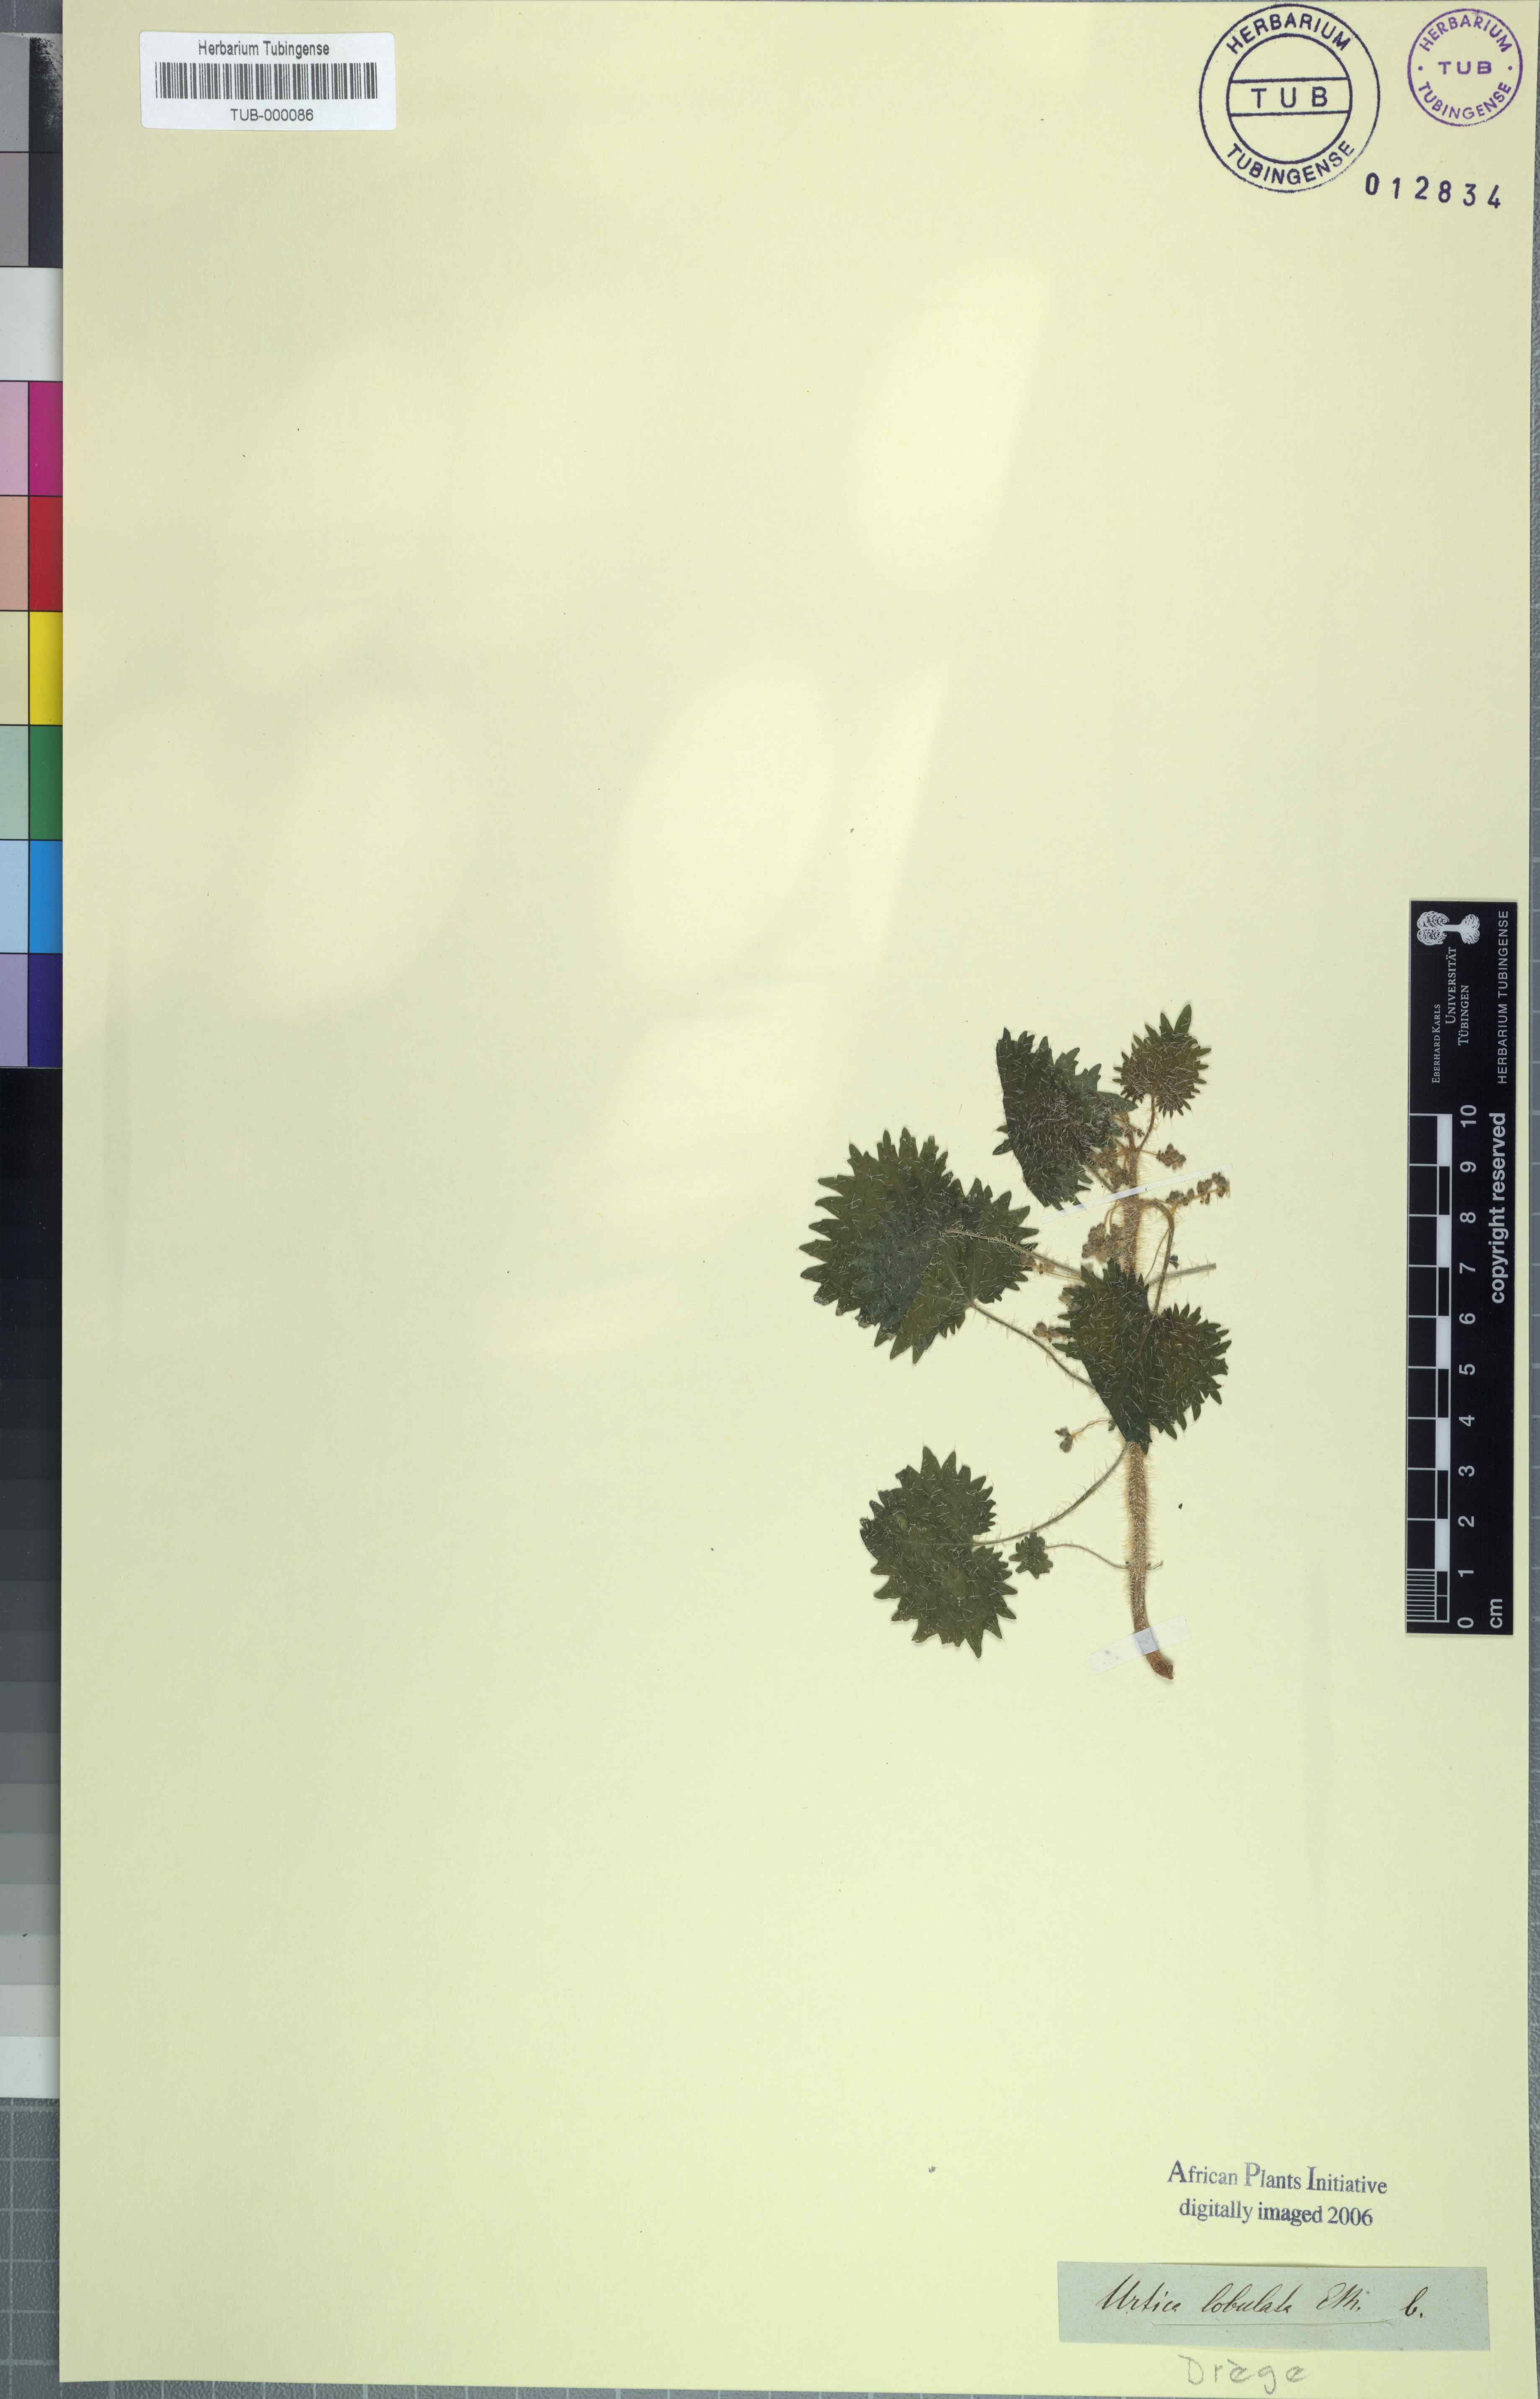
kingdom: Plantae
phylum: Tracheophyta
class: Magnoliopsida
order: Rosales
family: Urticaceae
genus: Urtica
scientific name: Urtica lobata
